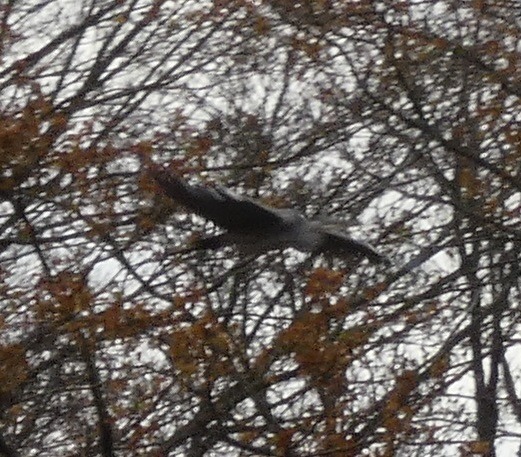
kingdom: Animalia
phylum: Chordata
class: Aves
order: Pelecaniformes
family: Ardeidae
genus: Ardea
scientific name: Ardea cinerea
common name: Fiskehejre
